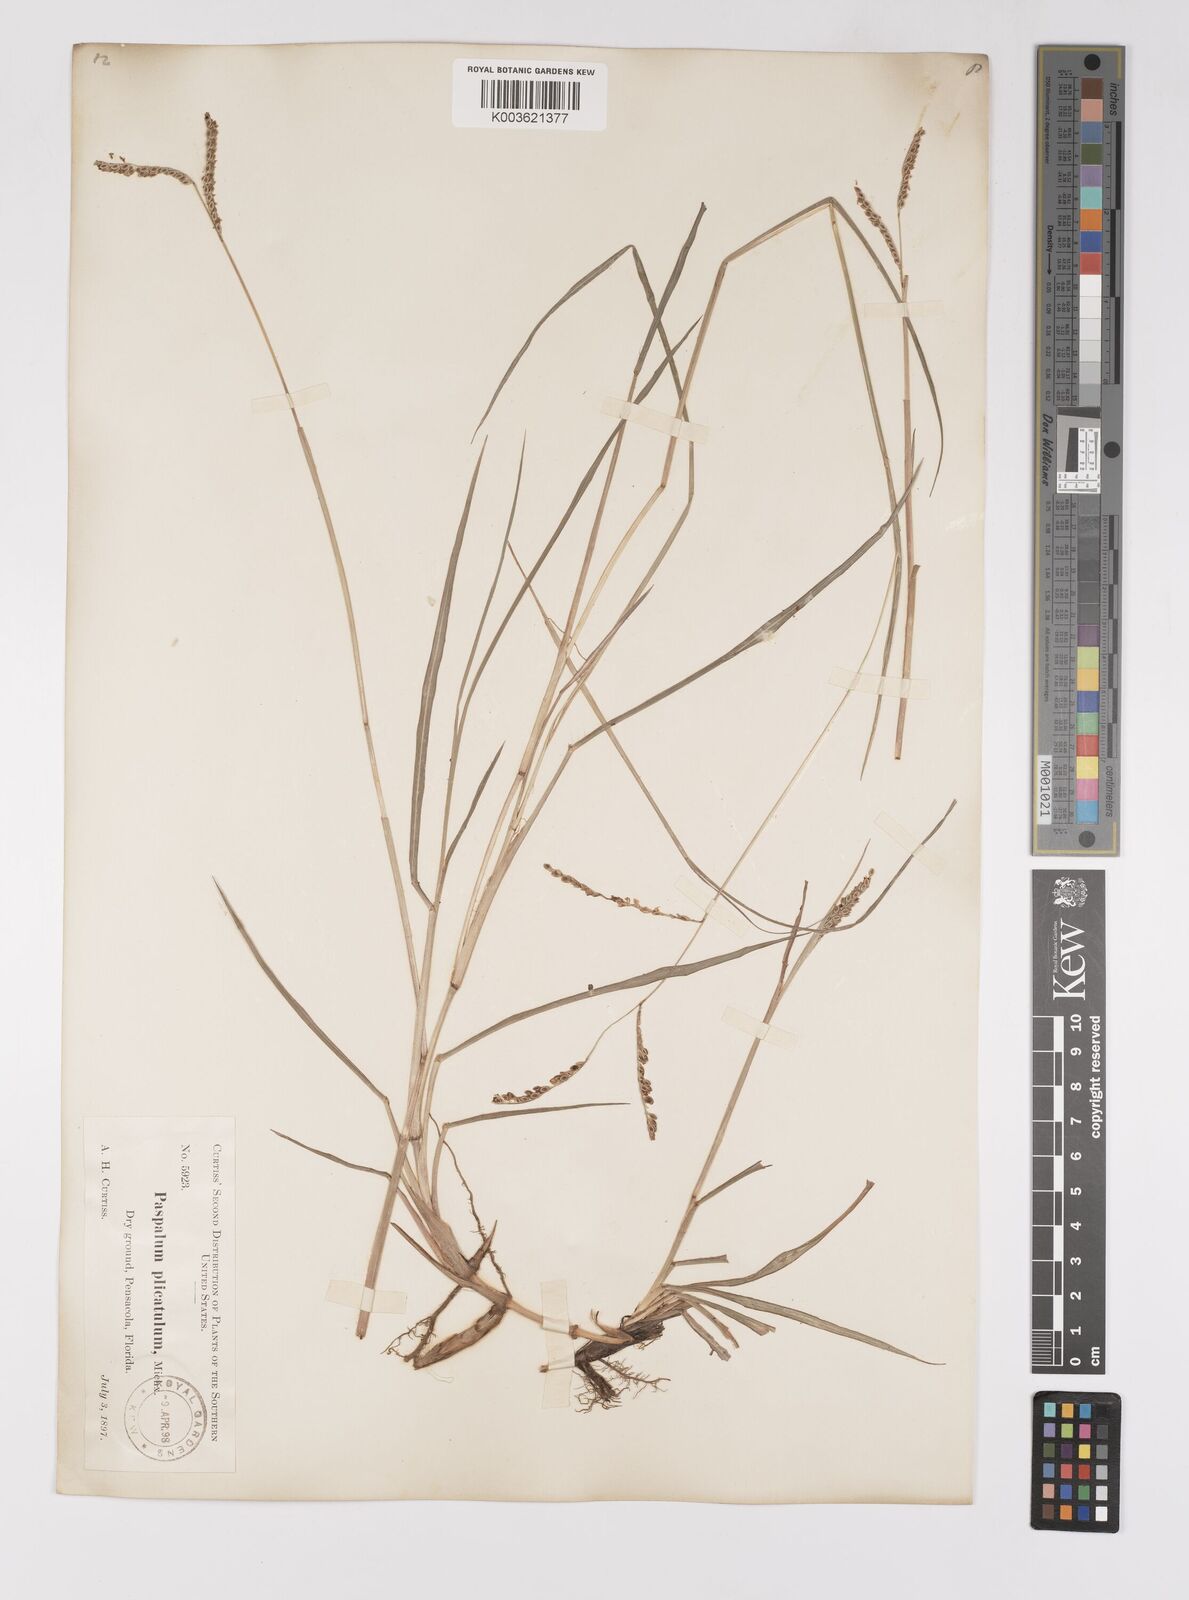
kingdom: Plantae
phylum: Tracheophyta
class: Liliopsida
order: Poales
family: Poaceae
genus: Paspalum
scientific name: Paspalum plicatulum
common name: Top paspalum
